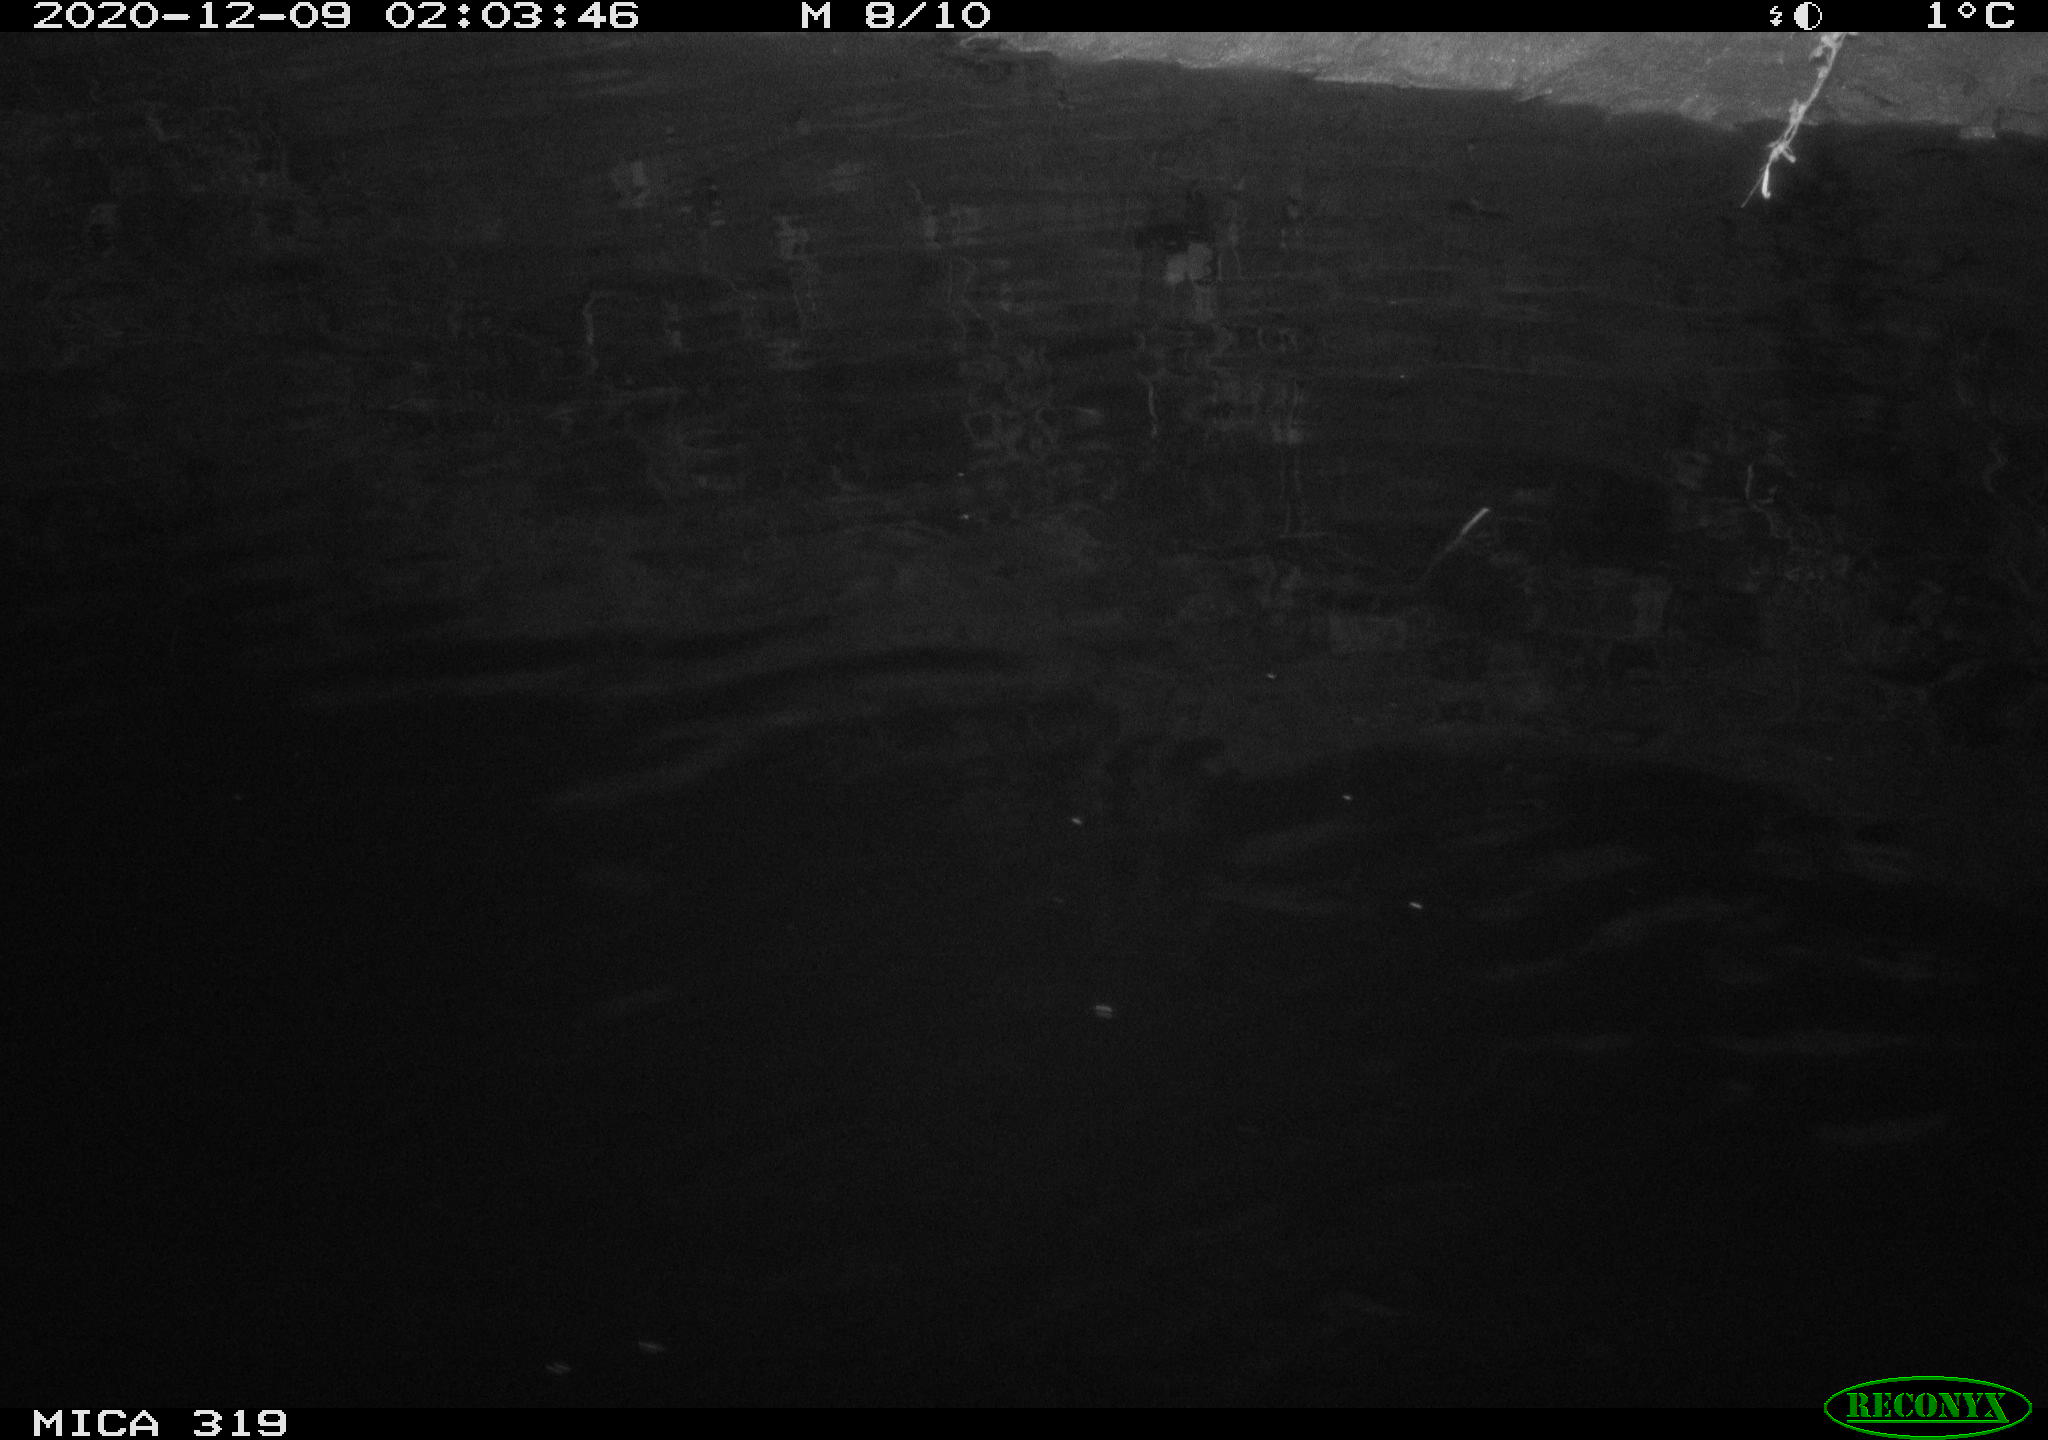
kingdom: Animalia
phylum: Chordata
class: Aves
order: Anseriformes
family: Anatidae
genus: Anas
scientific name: Anas platyrhynchos
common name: Mallard
